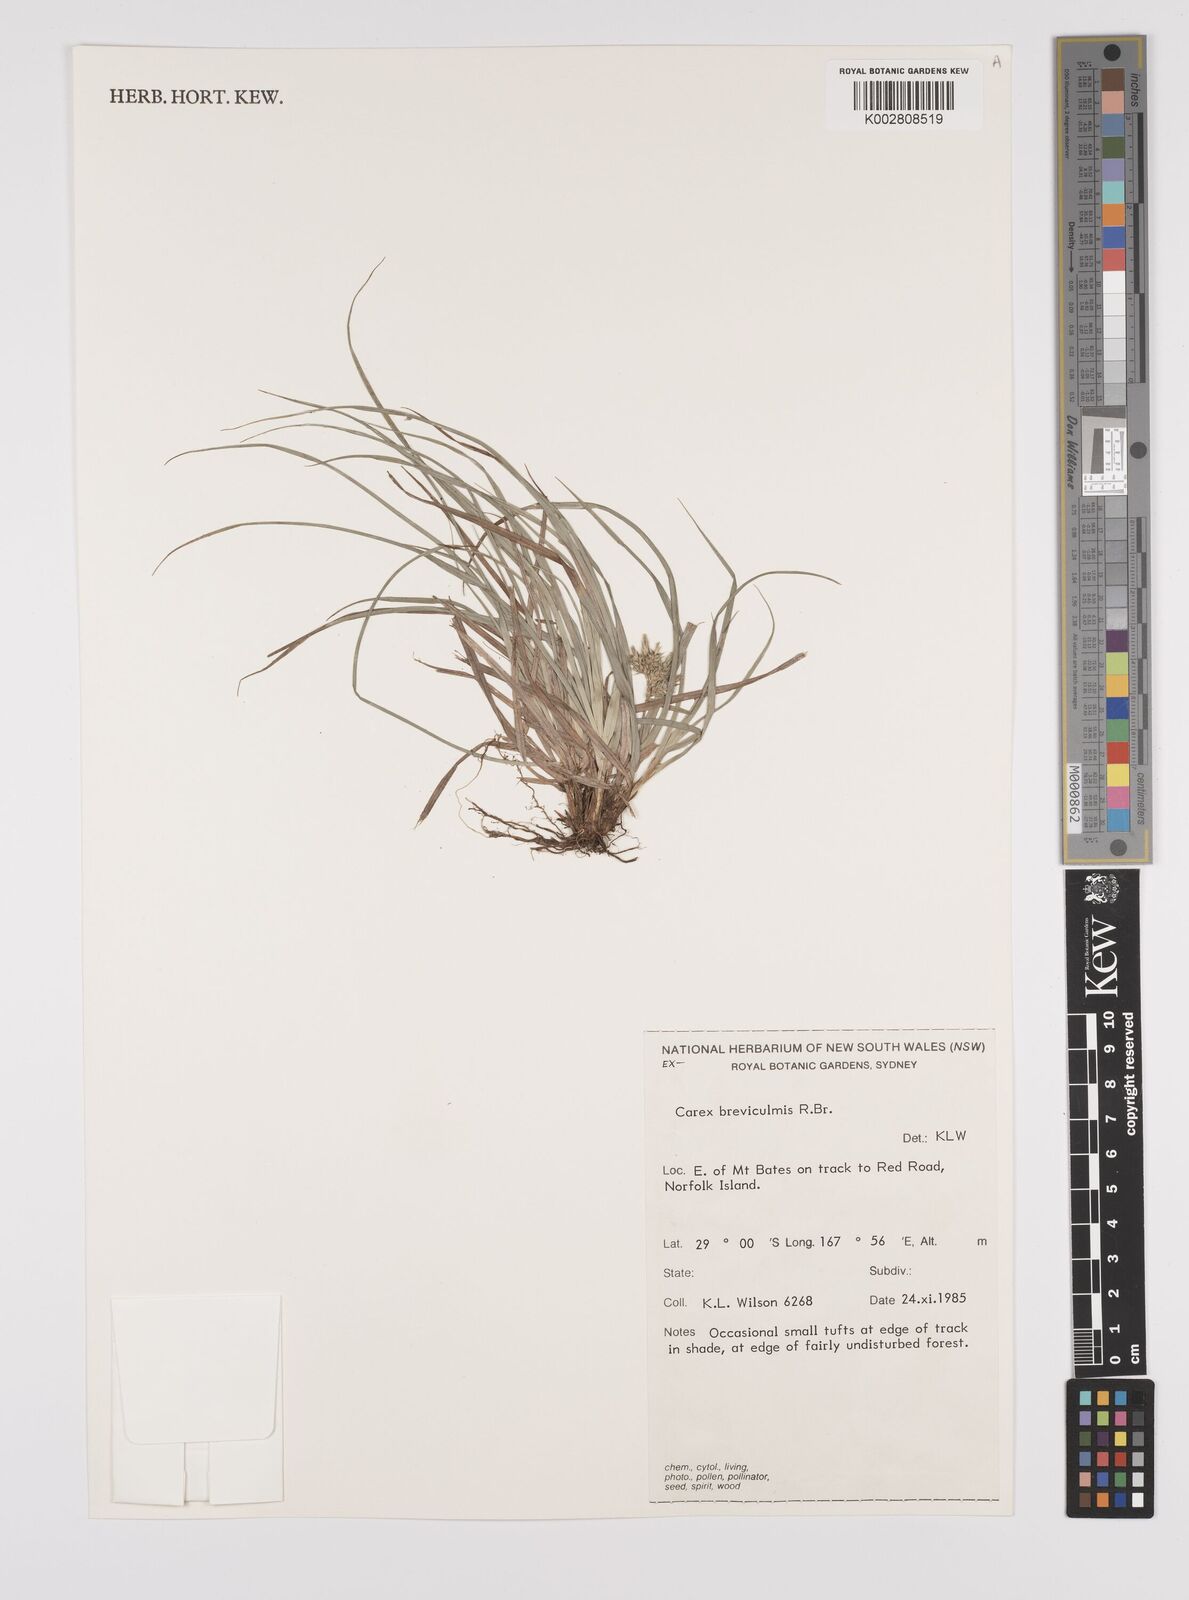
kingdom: Plantae
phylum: Tracheophyta
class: Liliopsida
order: Poales
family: Cyperaceae
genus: Carex
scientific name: Carex breviculmis
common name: Asian shortstem sedge
